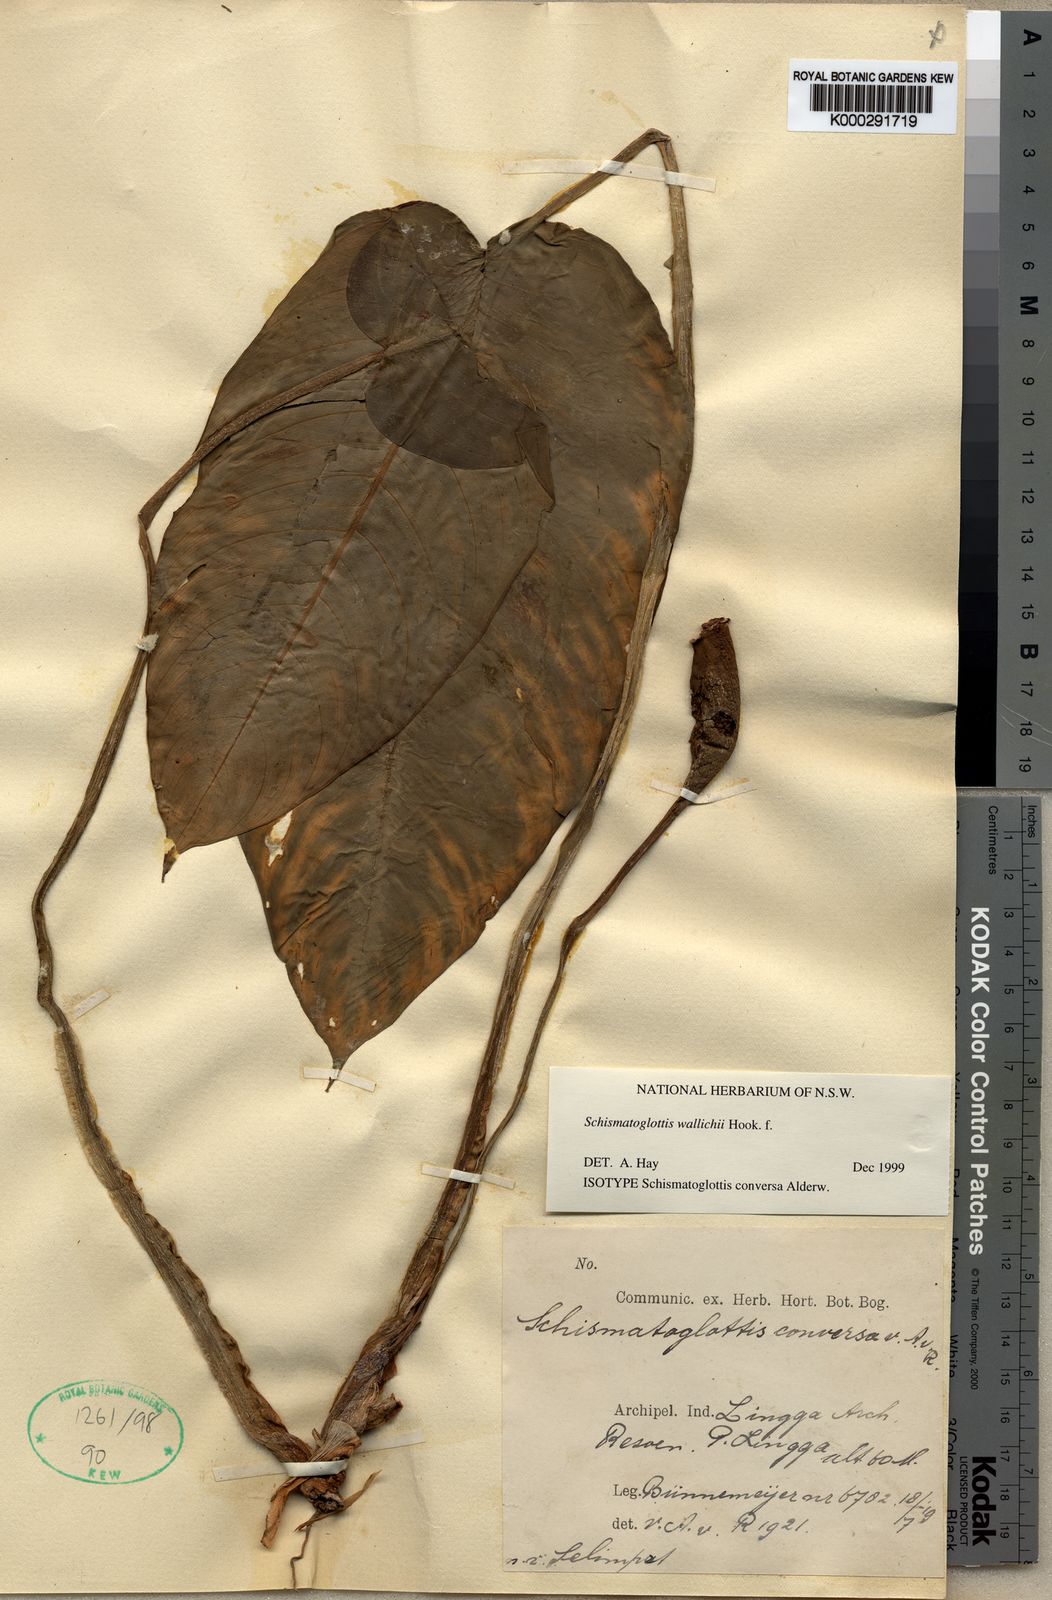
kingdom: Plantae
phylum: Tracheophyta
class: Liliopsida
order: Alismatales
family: Araceae
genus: Schismatoglottis
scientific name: Schismatoglottis wallichii
